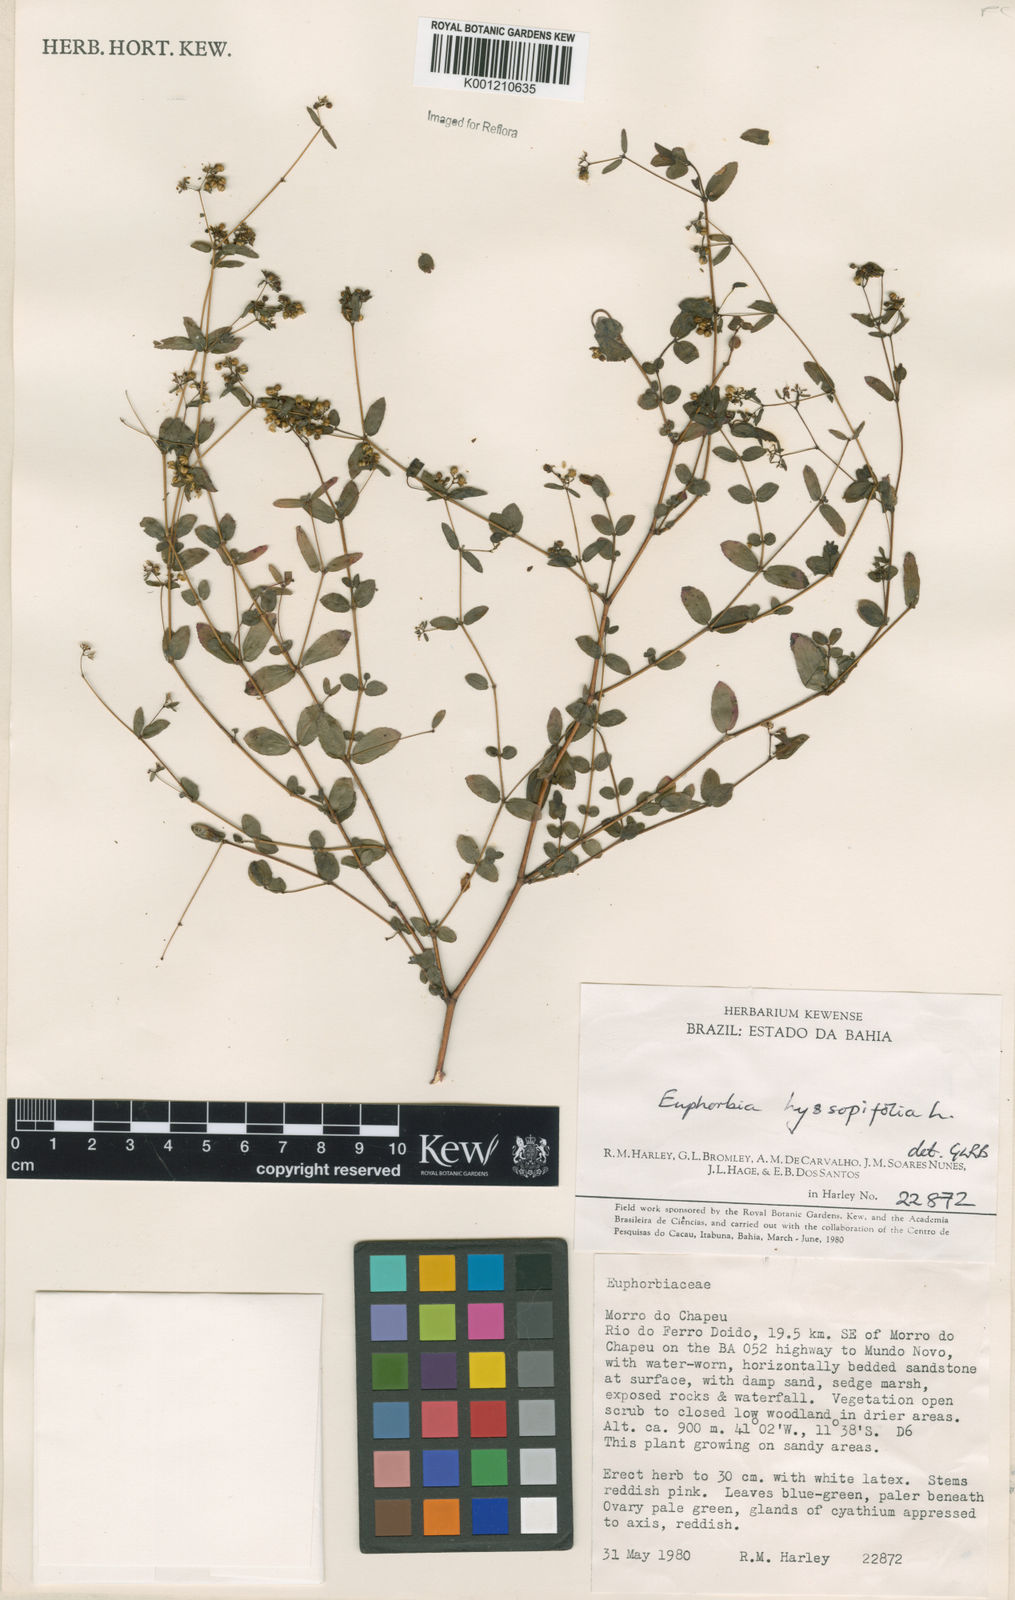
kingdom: Plantae
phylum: Tracheophyta
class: Magnoliopsida
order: Malpighiales
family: Euphorbiaceae
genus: Euphorbia
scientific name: Euphorbia hyssopifolia
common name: Hyssopleaf sandmat
